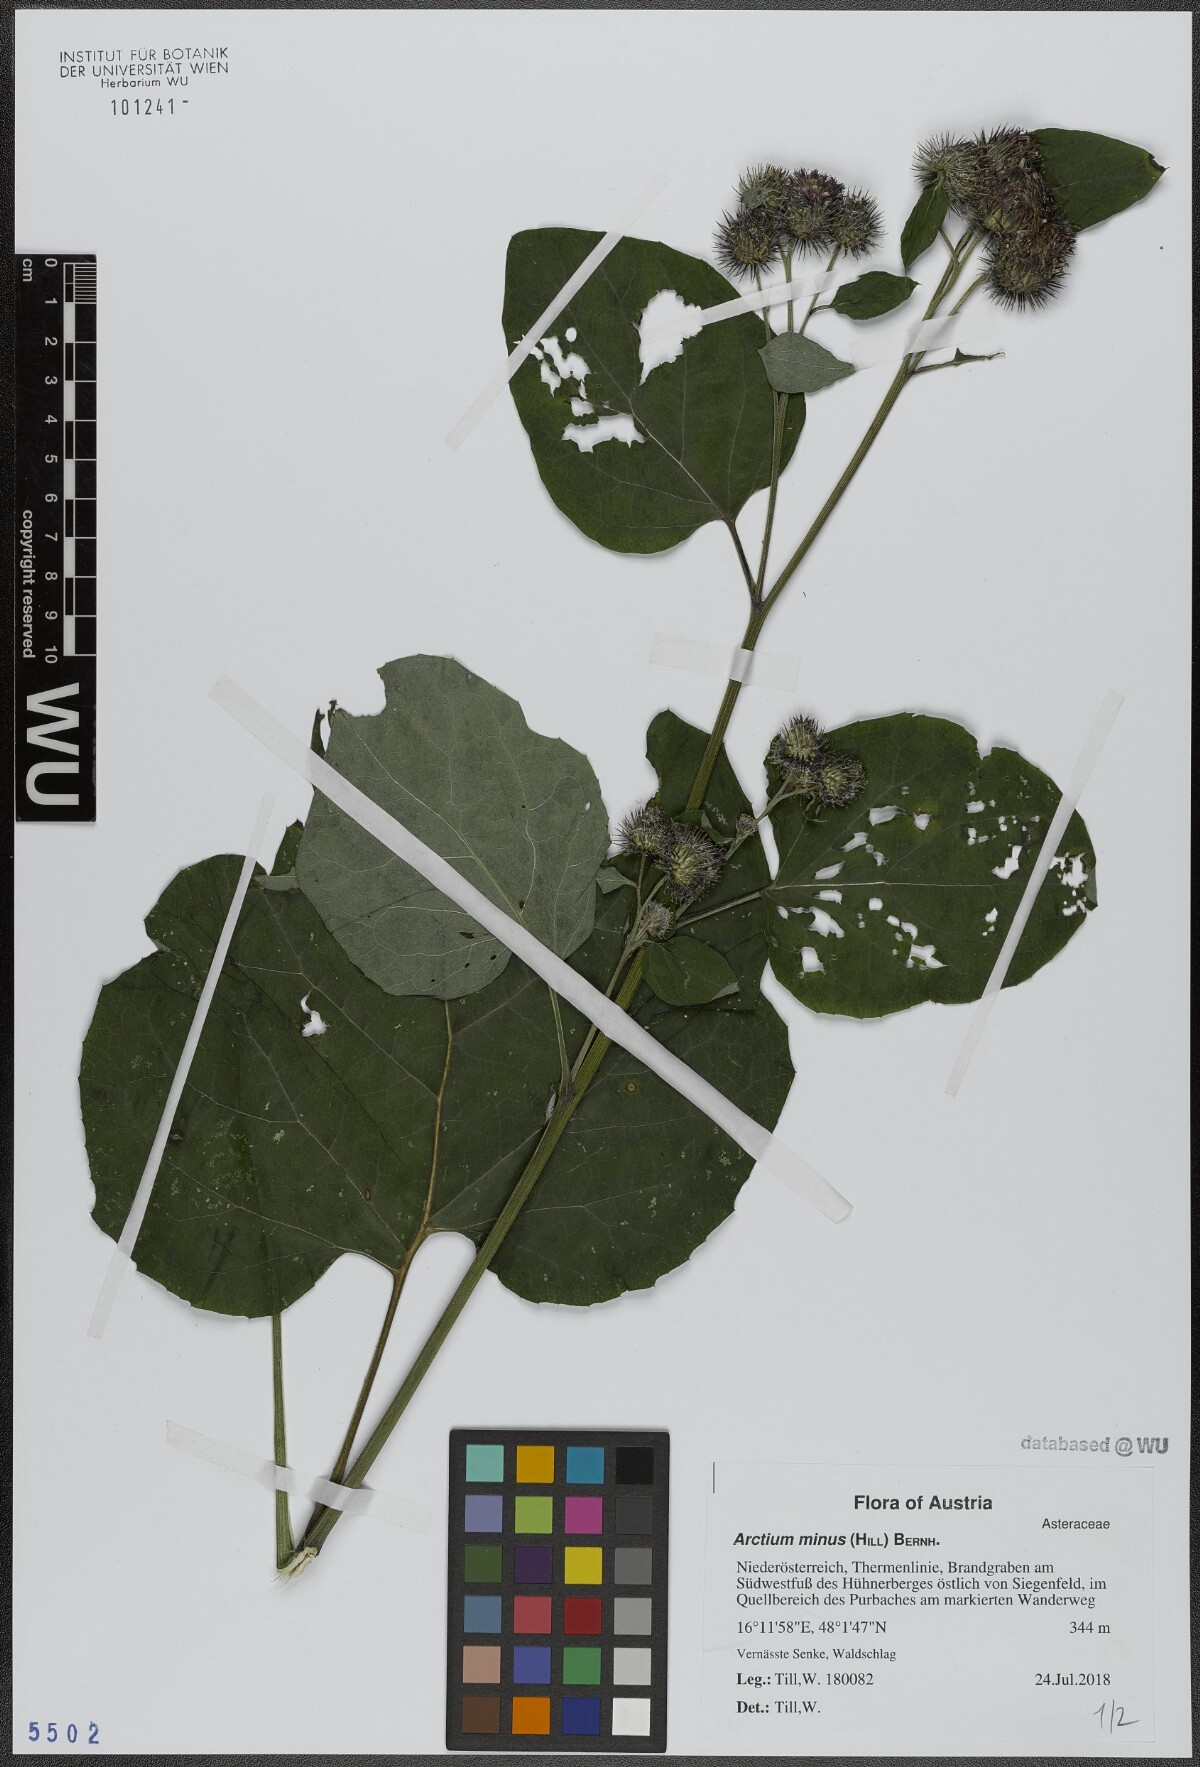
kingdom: Plantae
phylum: Tracheophyta
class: Magnoliopsida
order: Asterales
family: Asteraceae
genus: Arctium
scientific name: Arctium minus
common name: Lesser burdock
